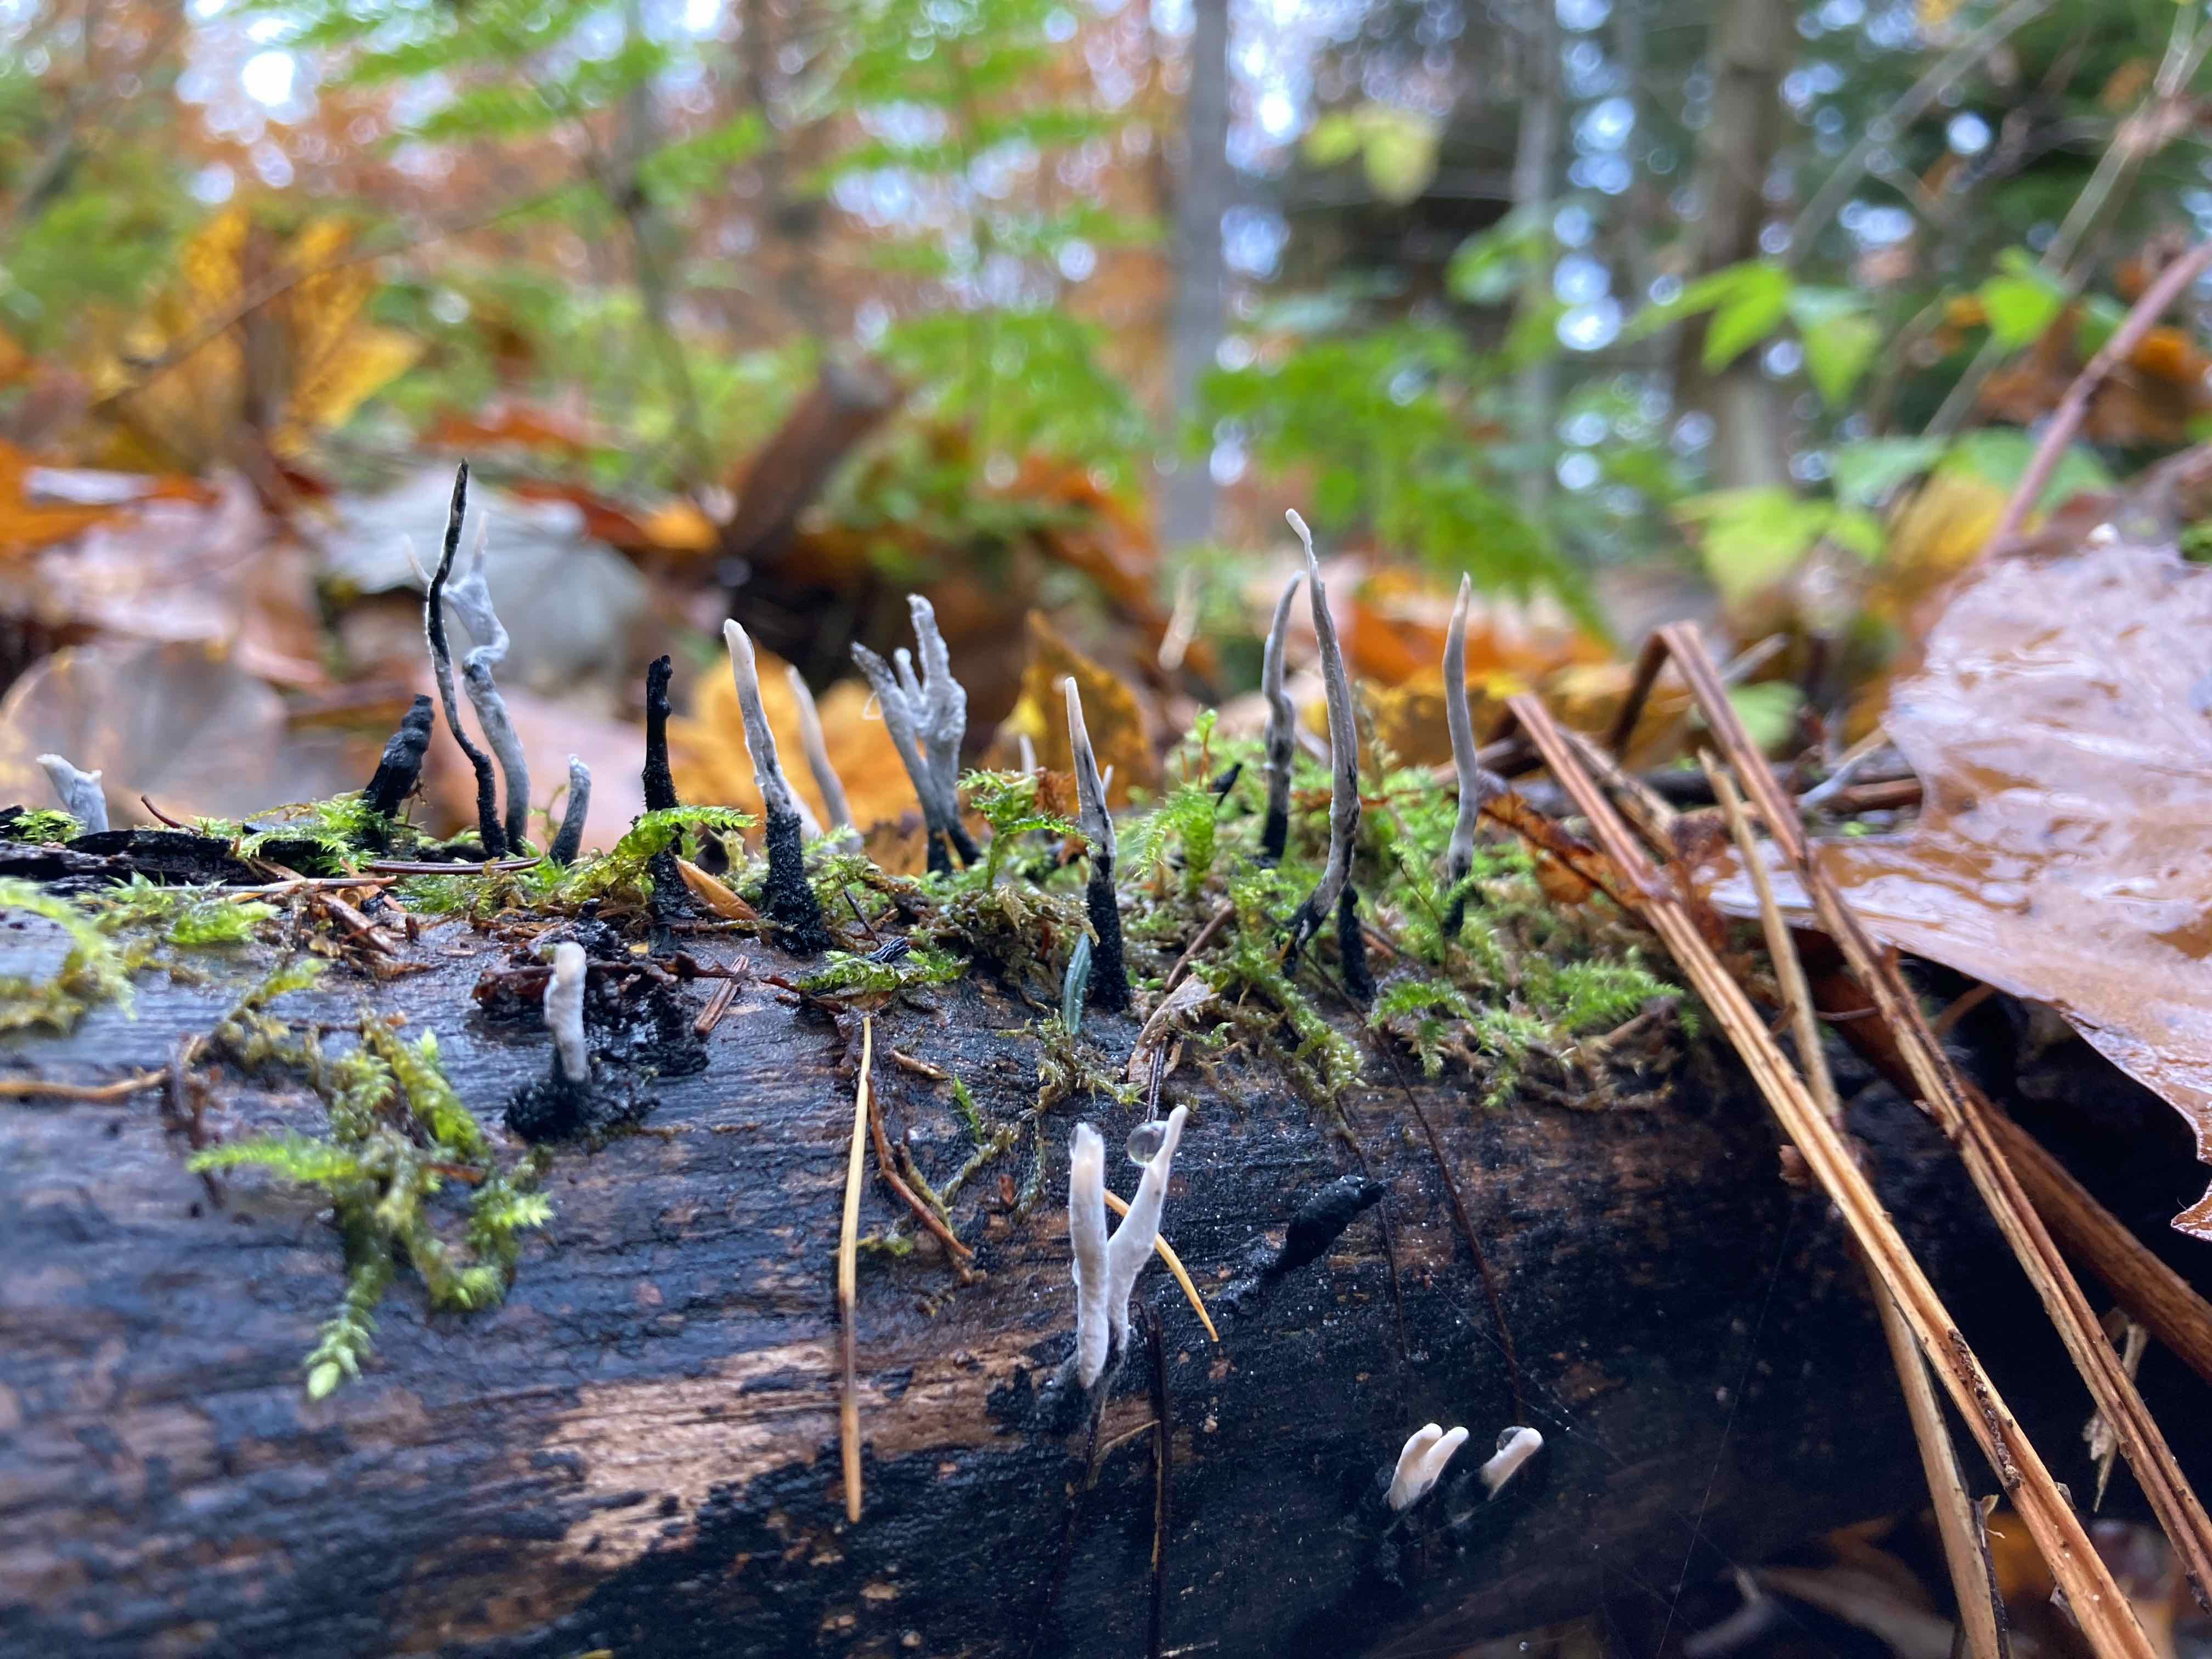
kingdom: Fungi
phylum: Ascomycota
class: Sordariomycetes
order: Xylariales
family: Xylariaceae
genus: Xylaria
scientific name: Xylaria hypoxylon
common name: grenet stødsvamp
